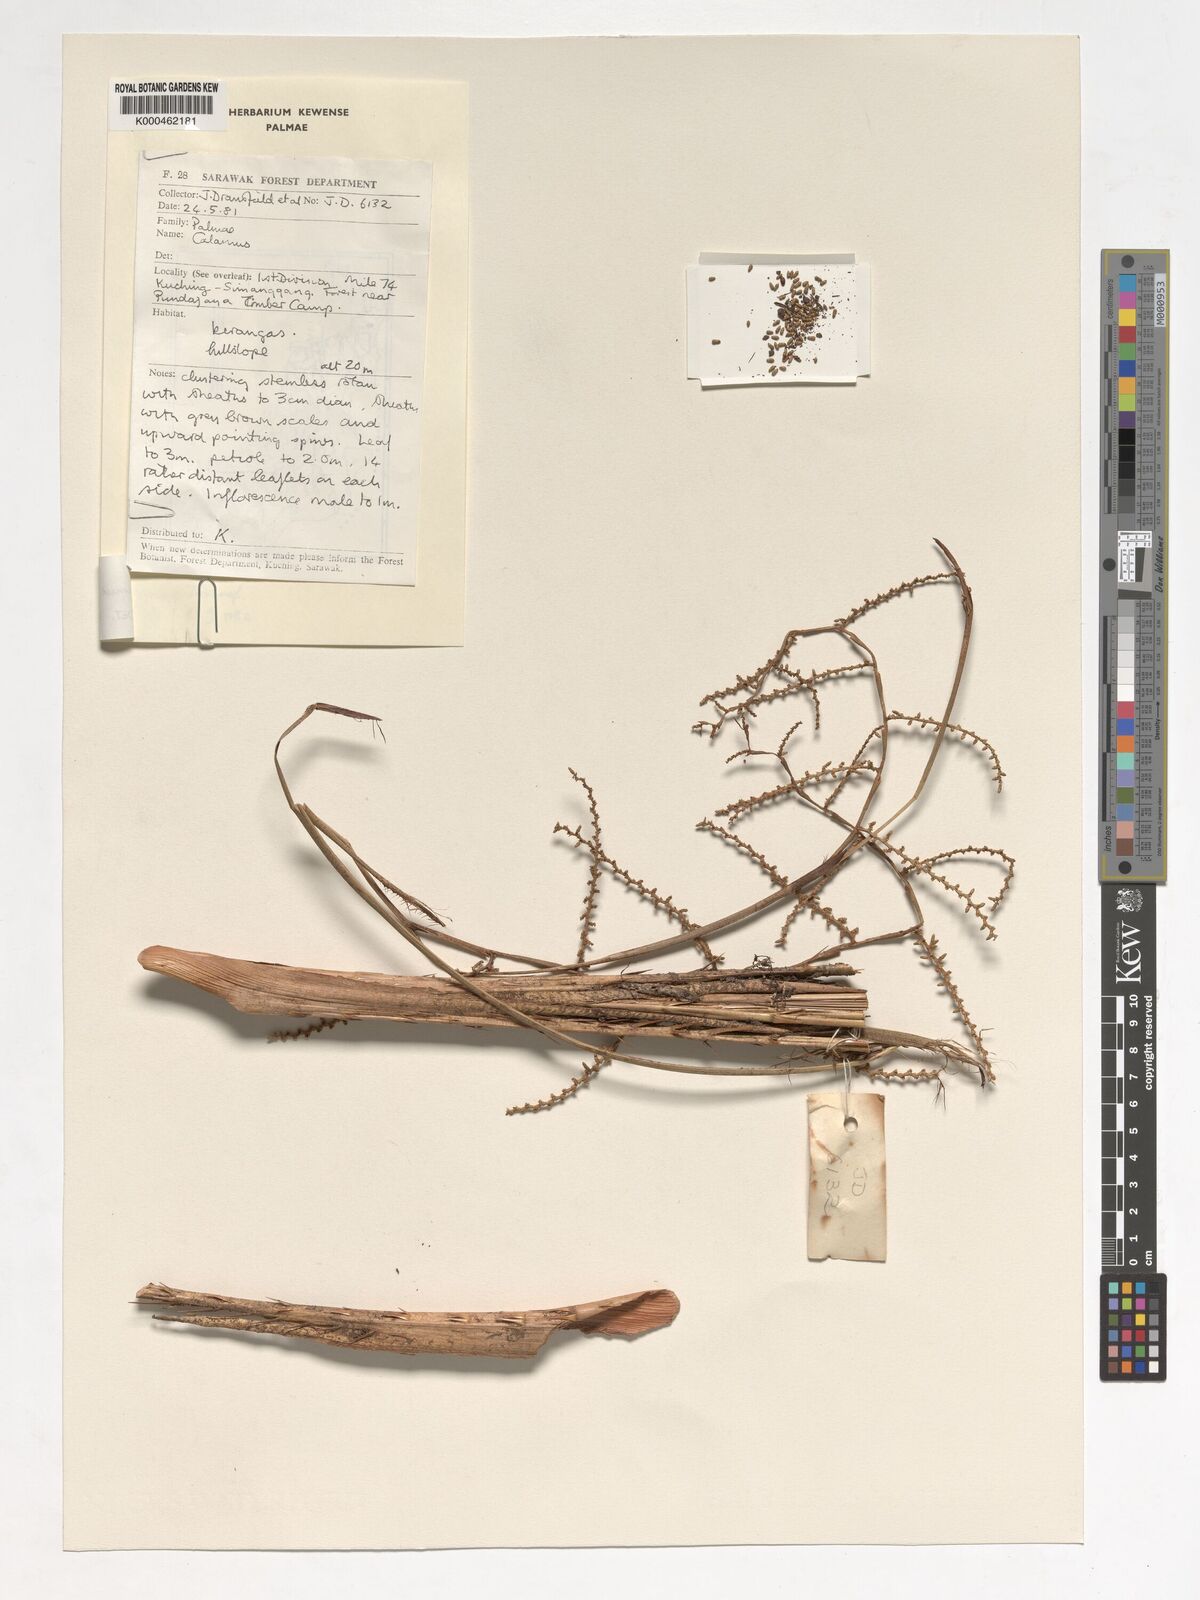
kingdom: Plantae
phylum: Tracheophyta
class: Liliopsida
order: Arecales
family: Arecaceae
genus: Calamus
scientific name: Calamus sabalensis
